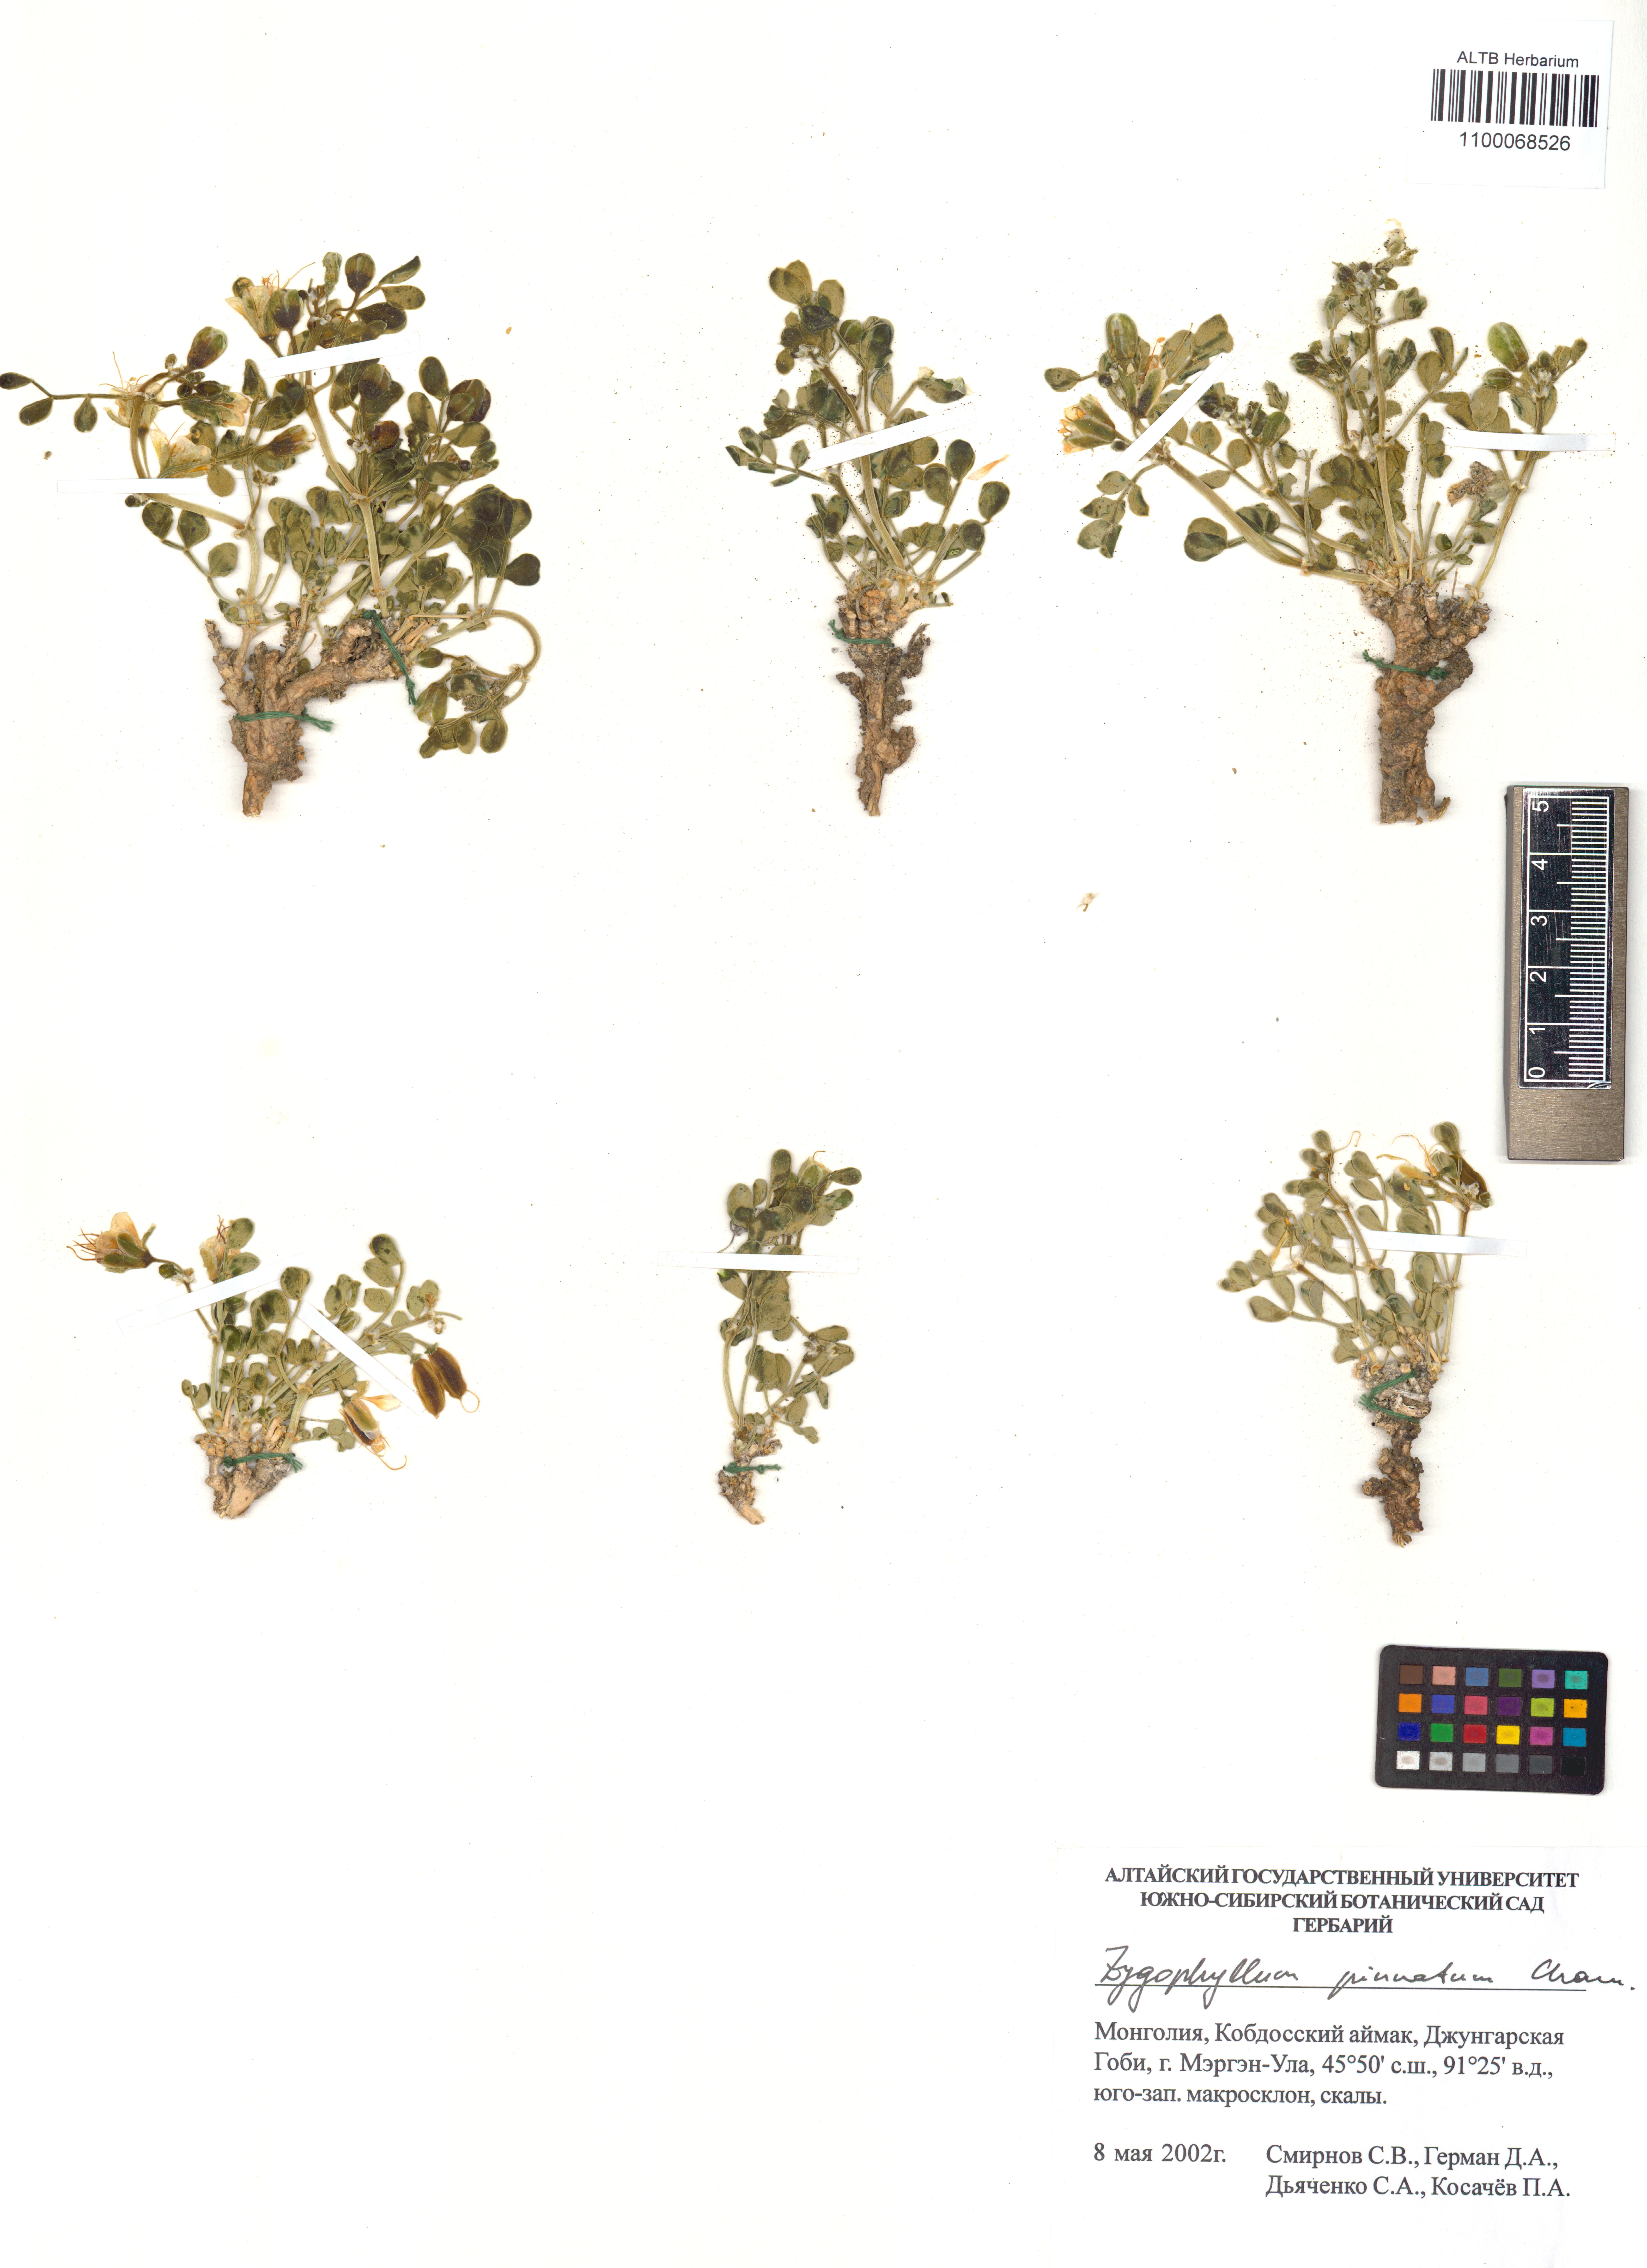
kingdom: Plantae
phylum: Tracheophyta
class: Magnoliopsida
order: Zygophyllales
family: Zygophyllaceae
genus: Zygophyllum
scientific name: Zygophyllum pinnatum
